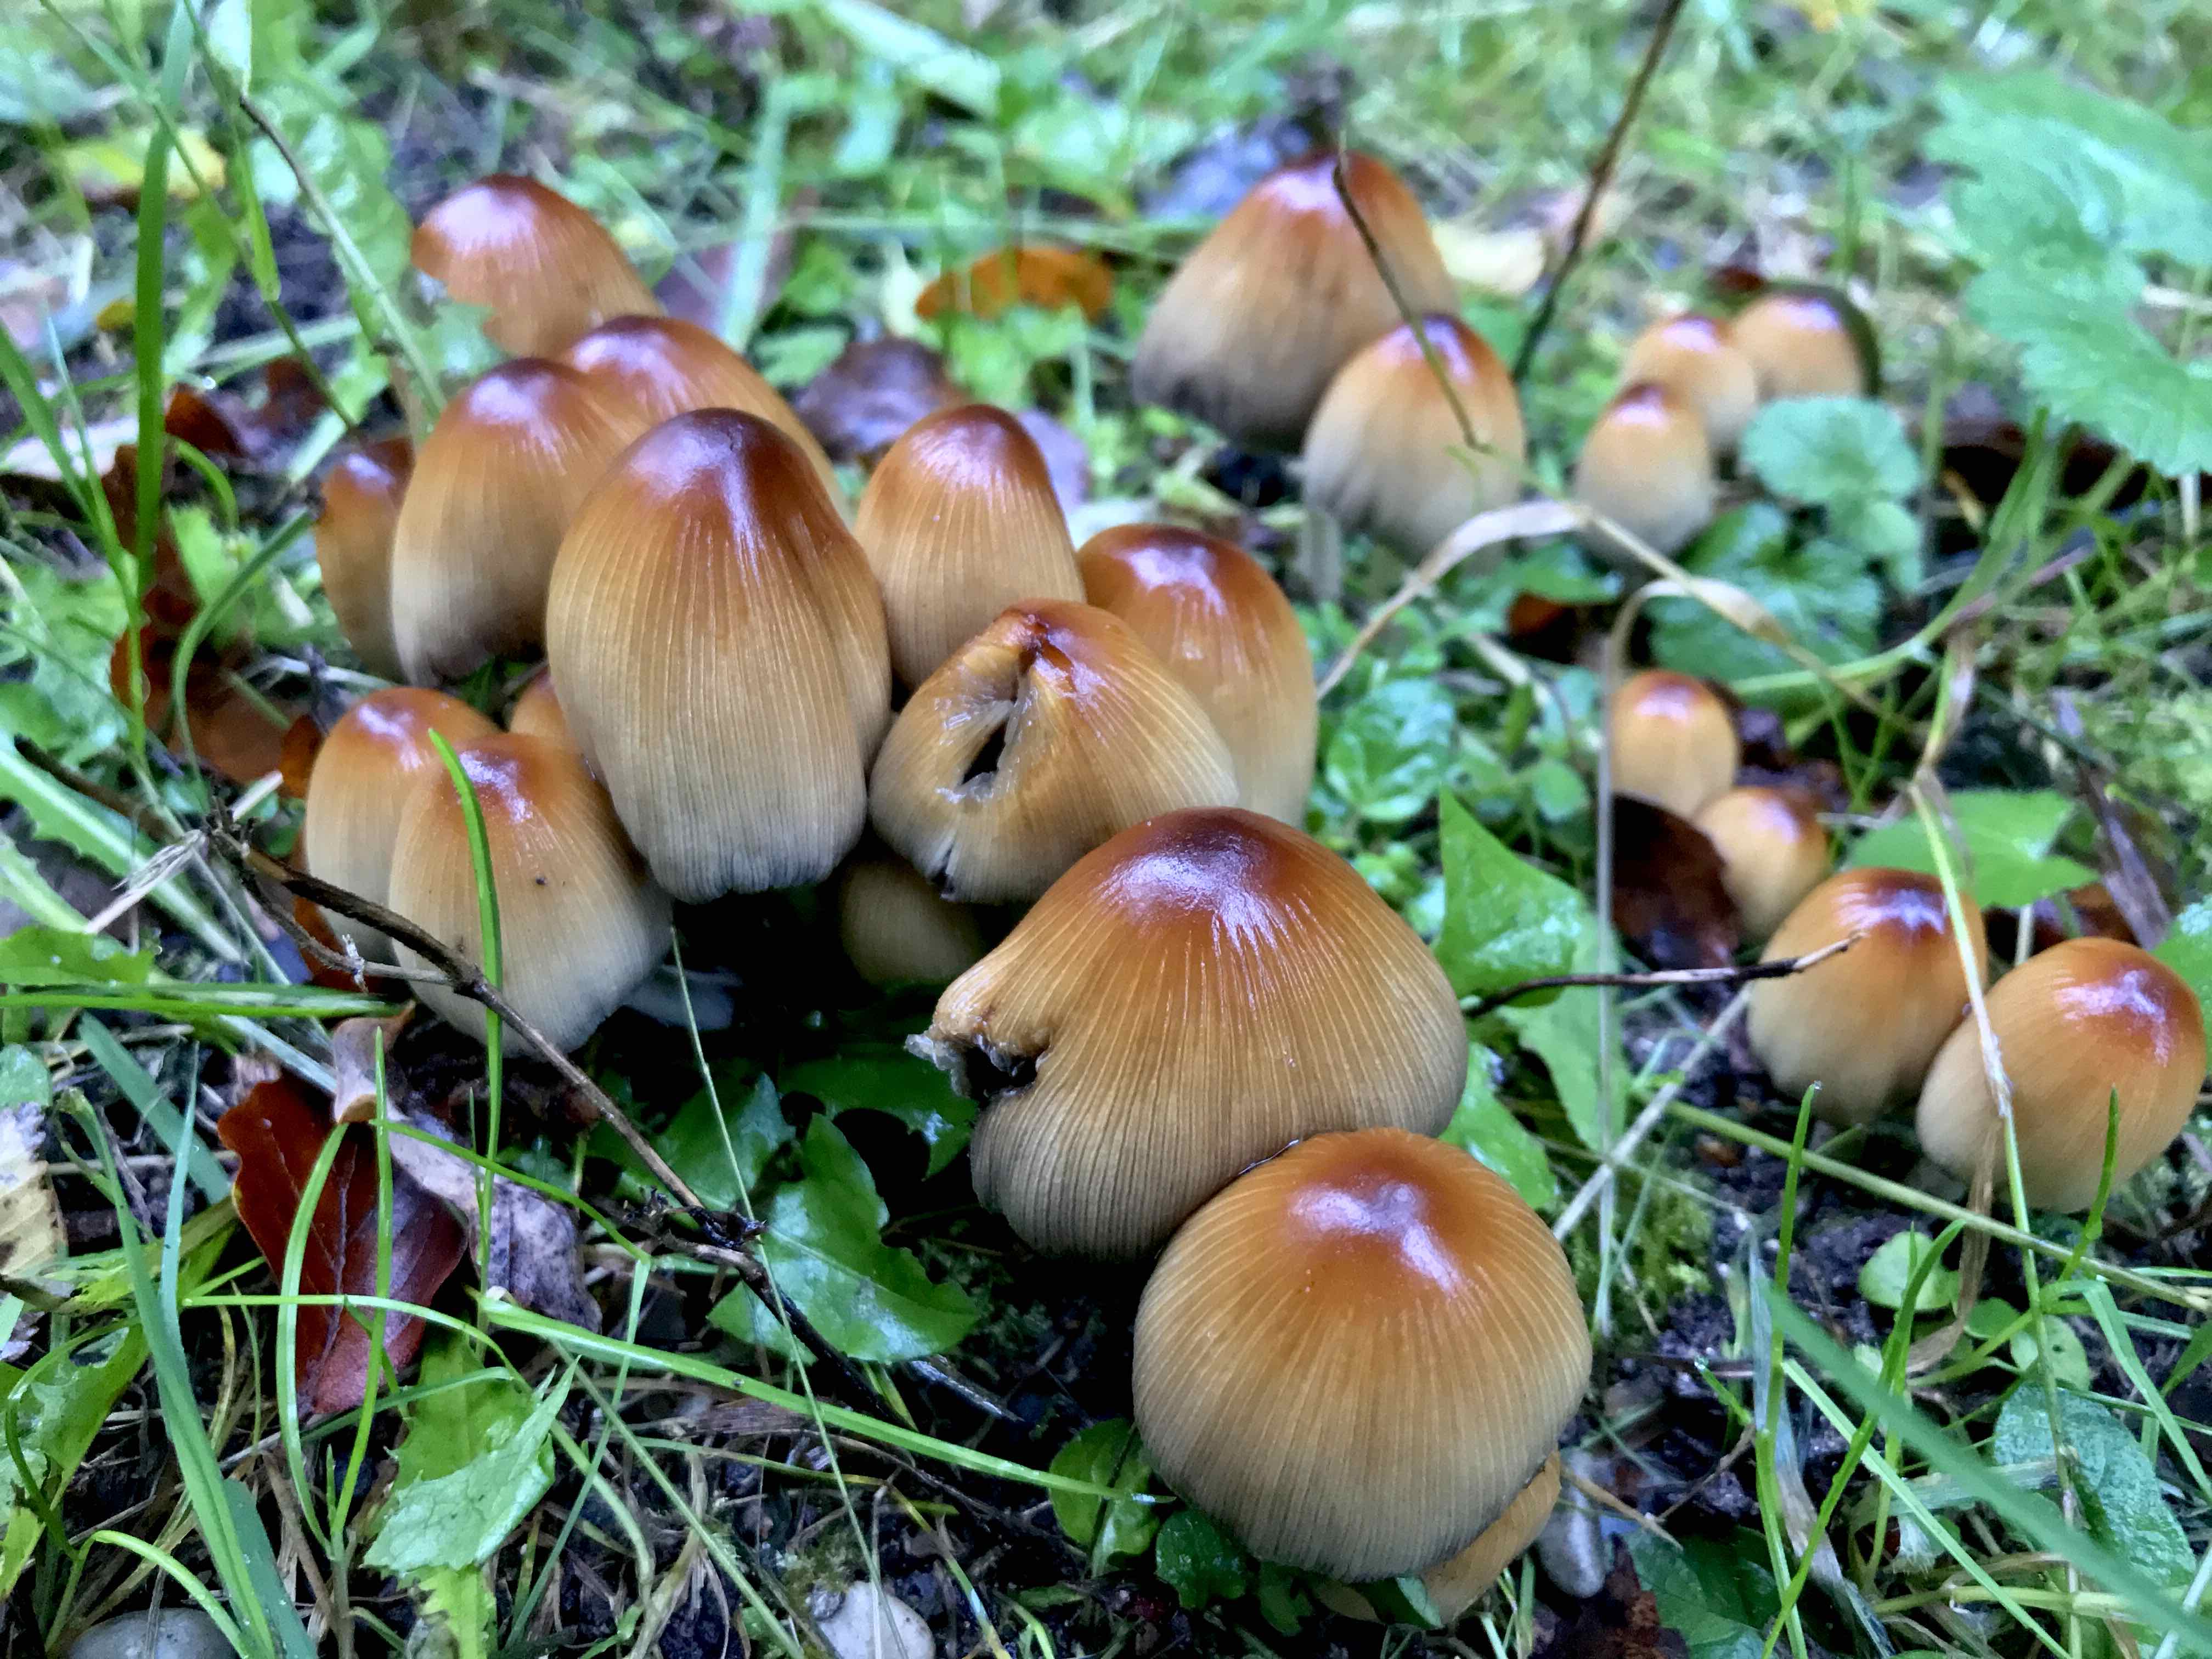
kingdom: Fungi
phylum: Basidiomycota
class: Agaricomycetes
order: Agaricales
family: Psathyrellaceae
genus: Coprinellus
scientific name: Coprinellus micaceus
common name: glimmer-blækhat
